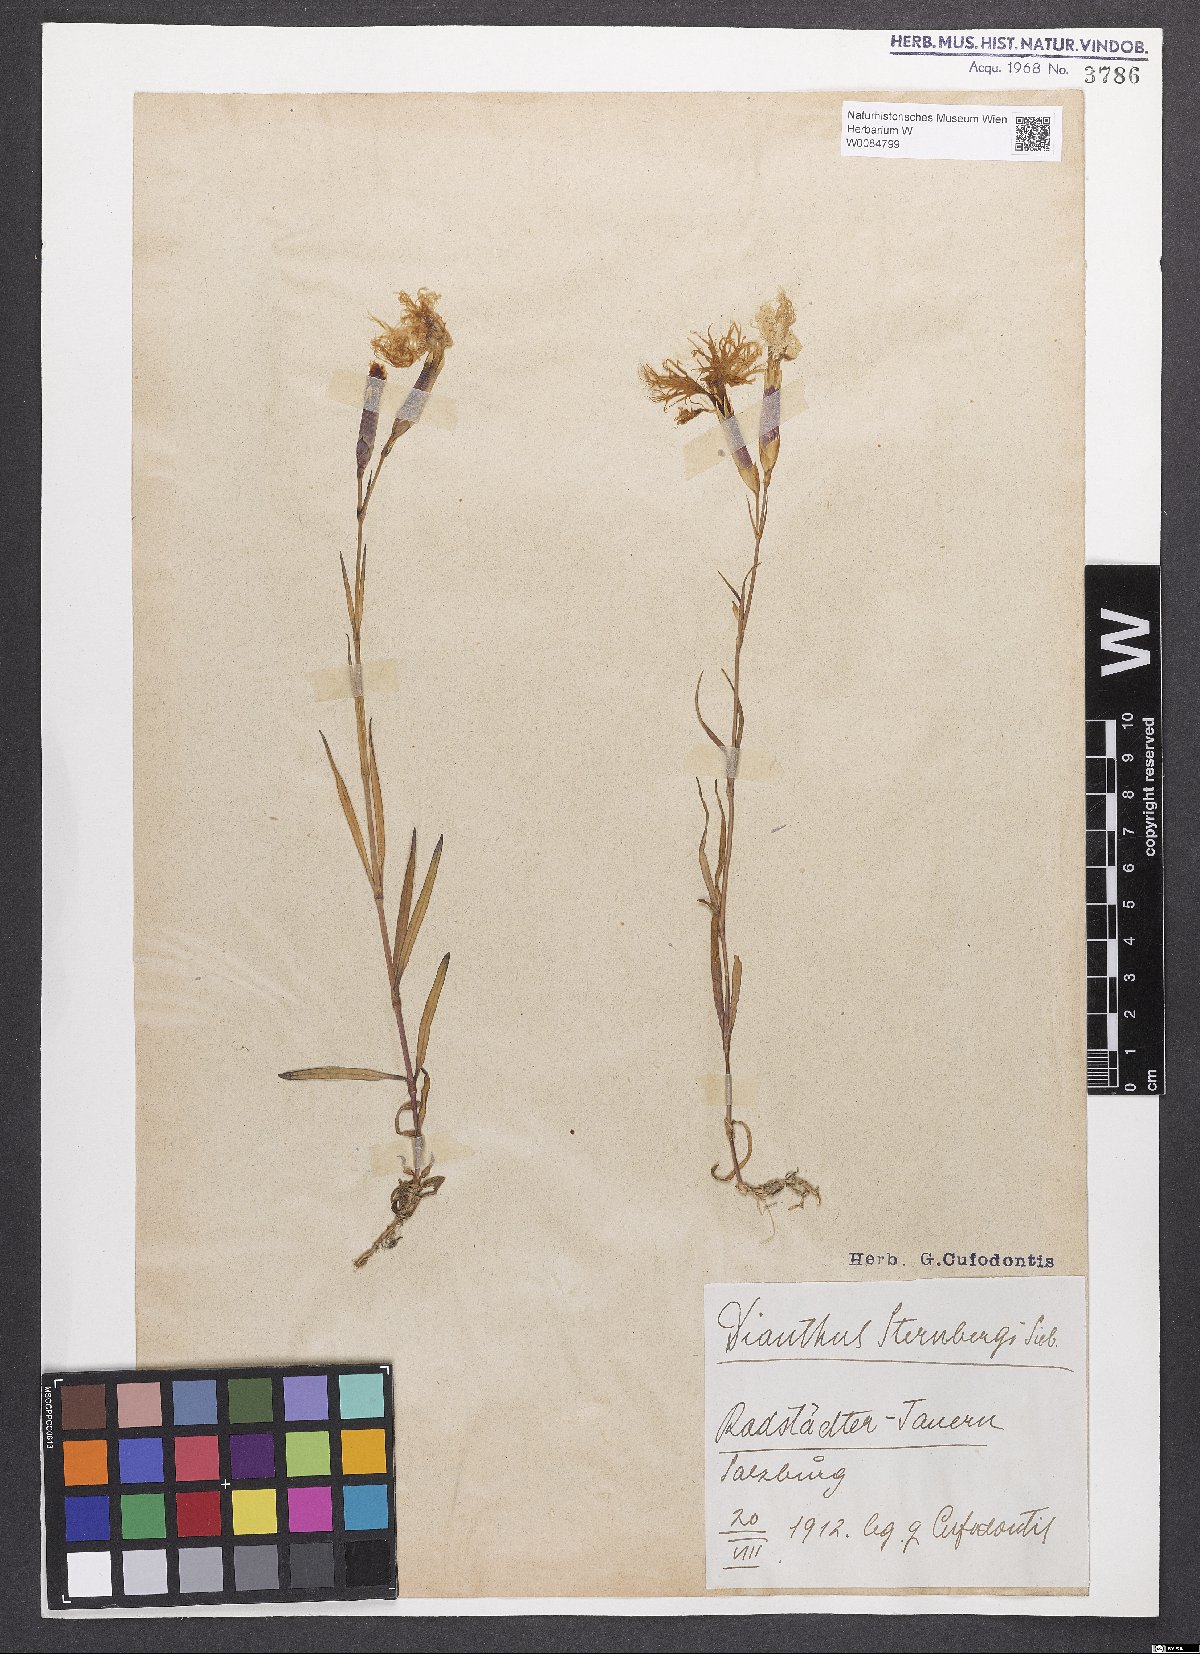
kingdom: Plantae
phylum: Tracheophyta
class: Magnoliopsida
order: Caryophyllales
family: Caryophyllaceae
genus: Dianthus
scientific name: Dianthus monspessulanus
